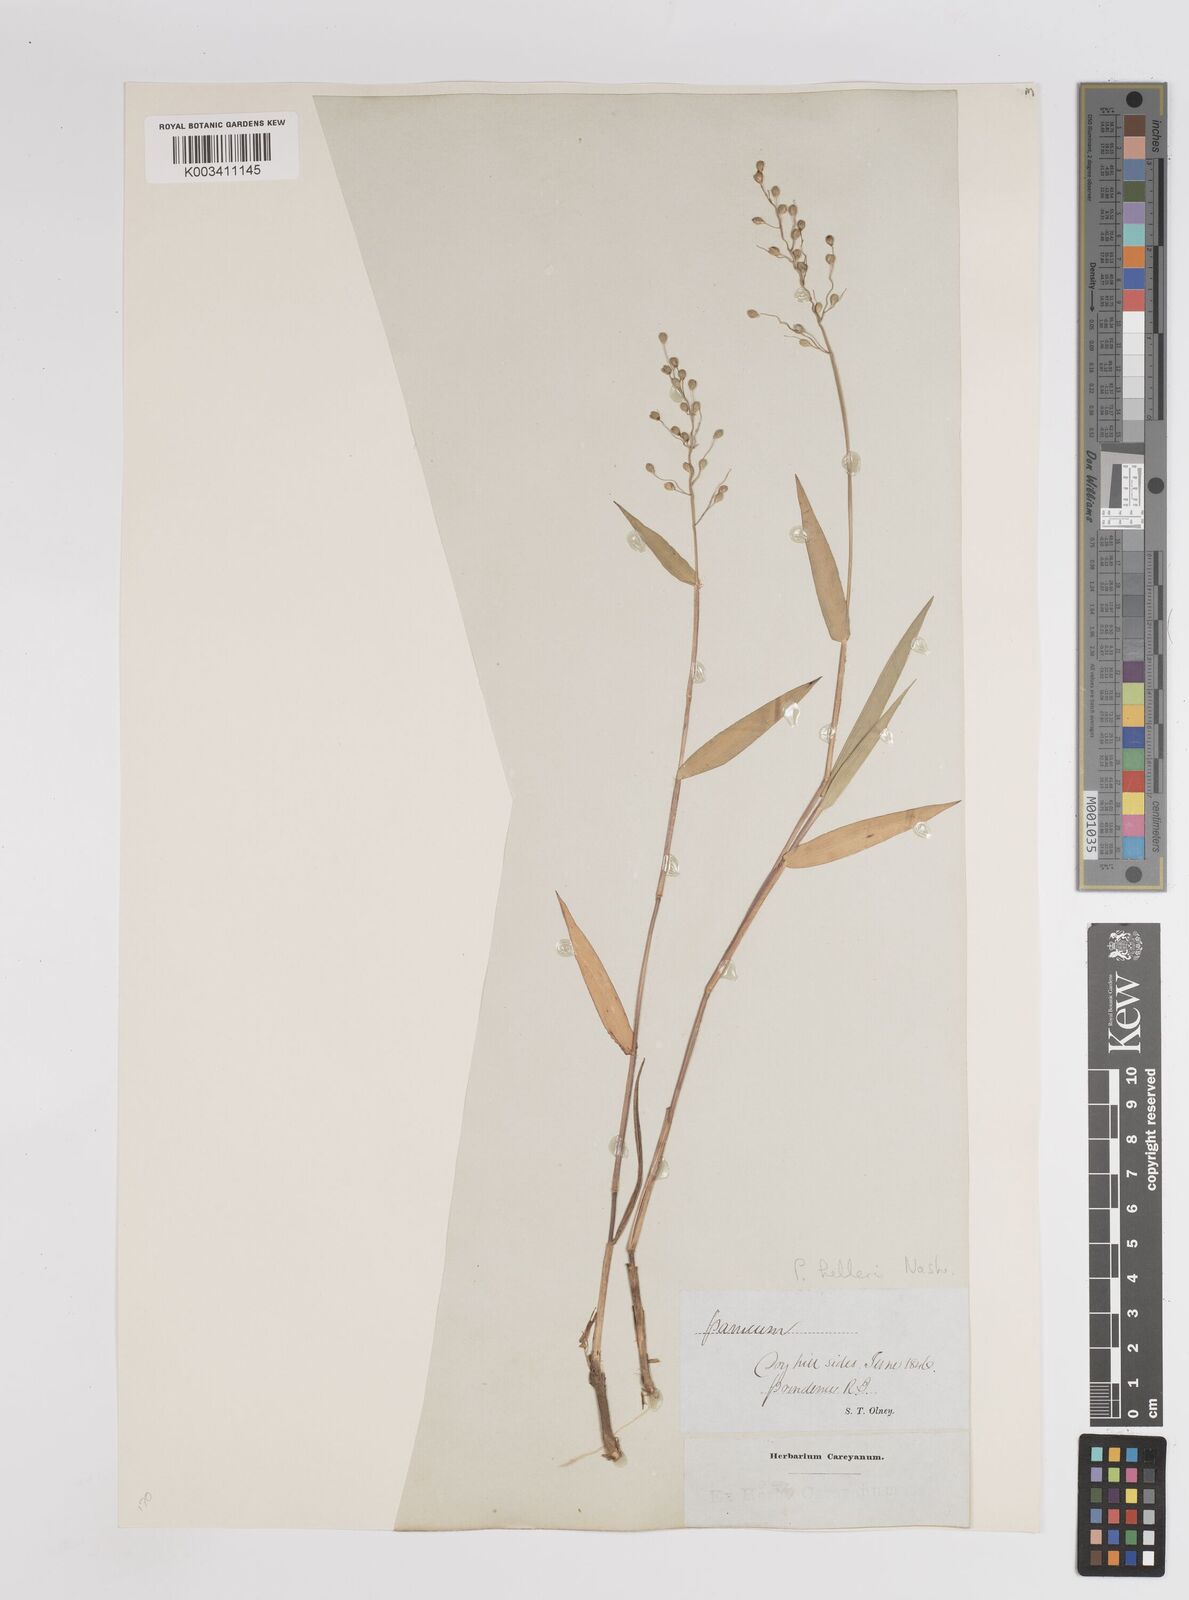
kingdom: Plantae
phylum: Tracheophyta
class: Liliopsida
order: Poales
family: Poaceae
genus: Dichanthelium
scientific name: Dichanthelium oligosanthes
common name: Few-anther obscuregrass
